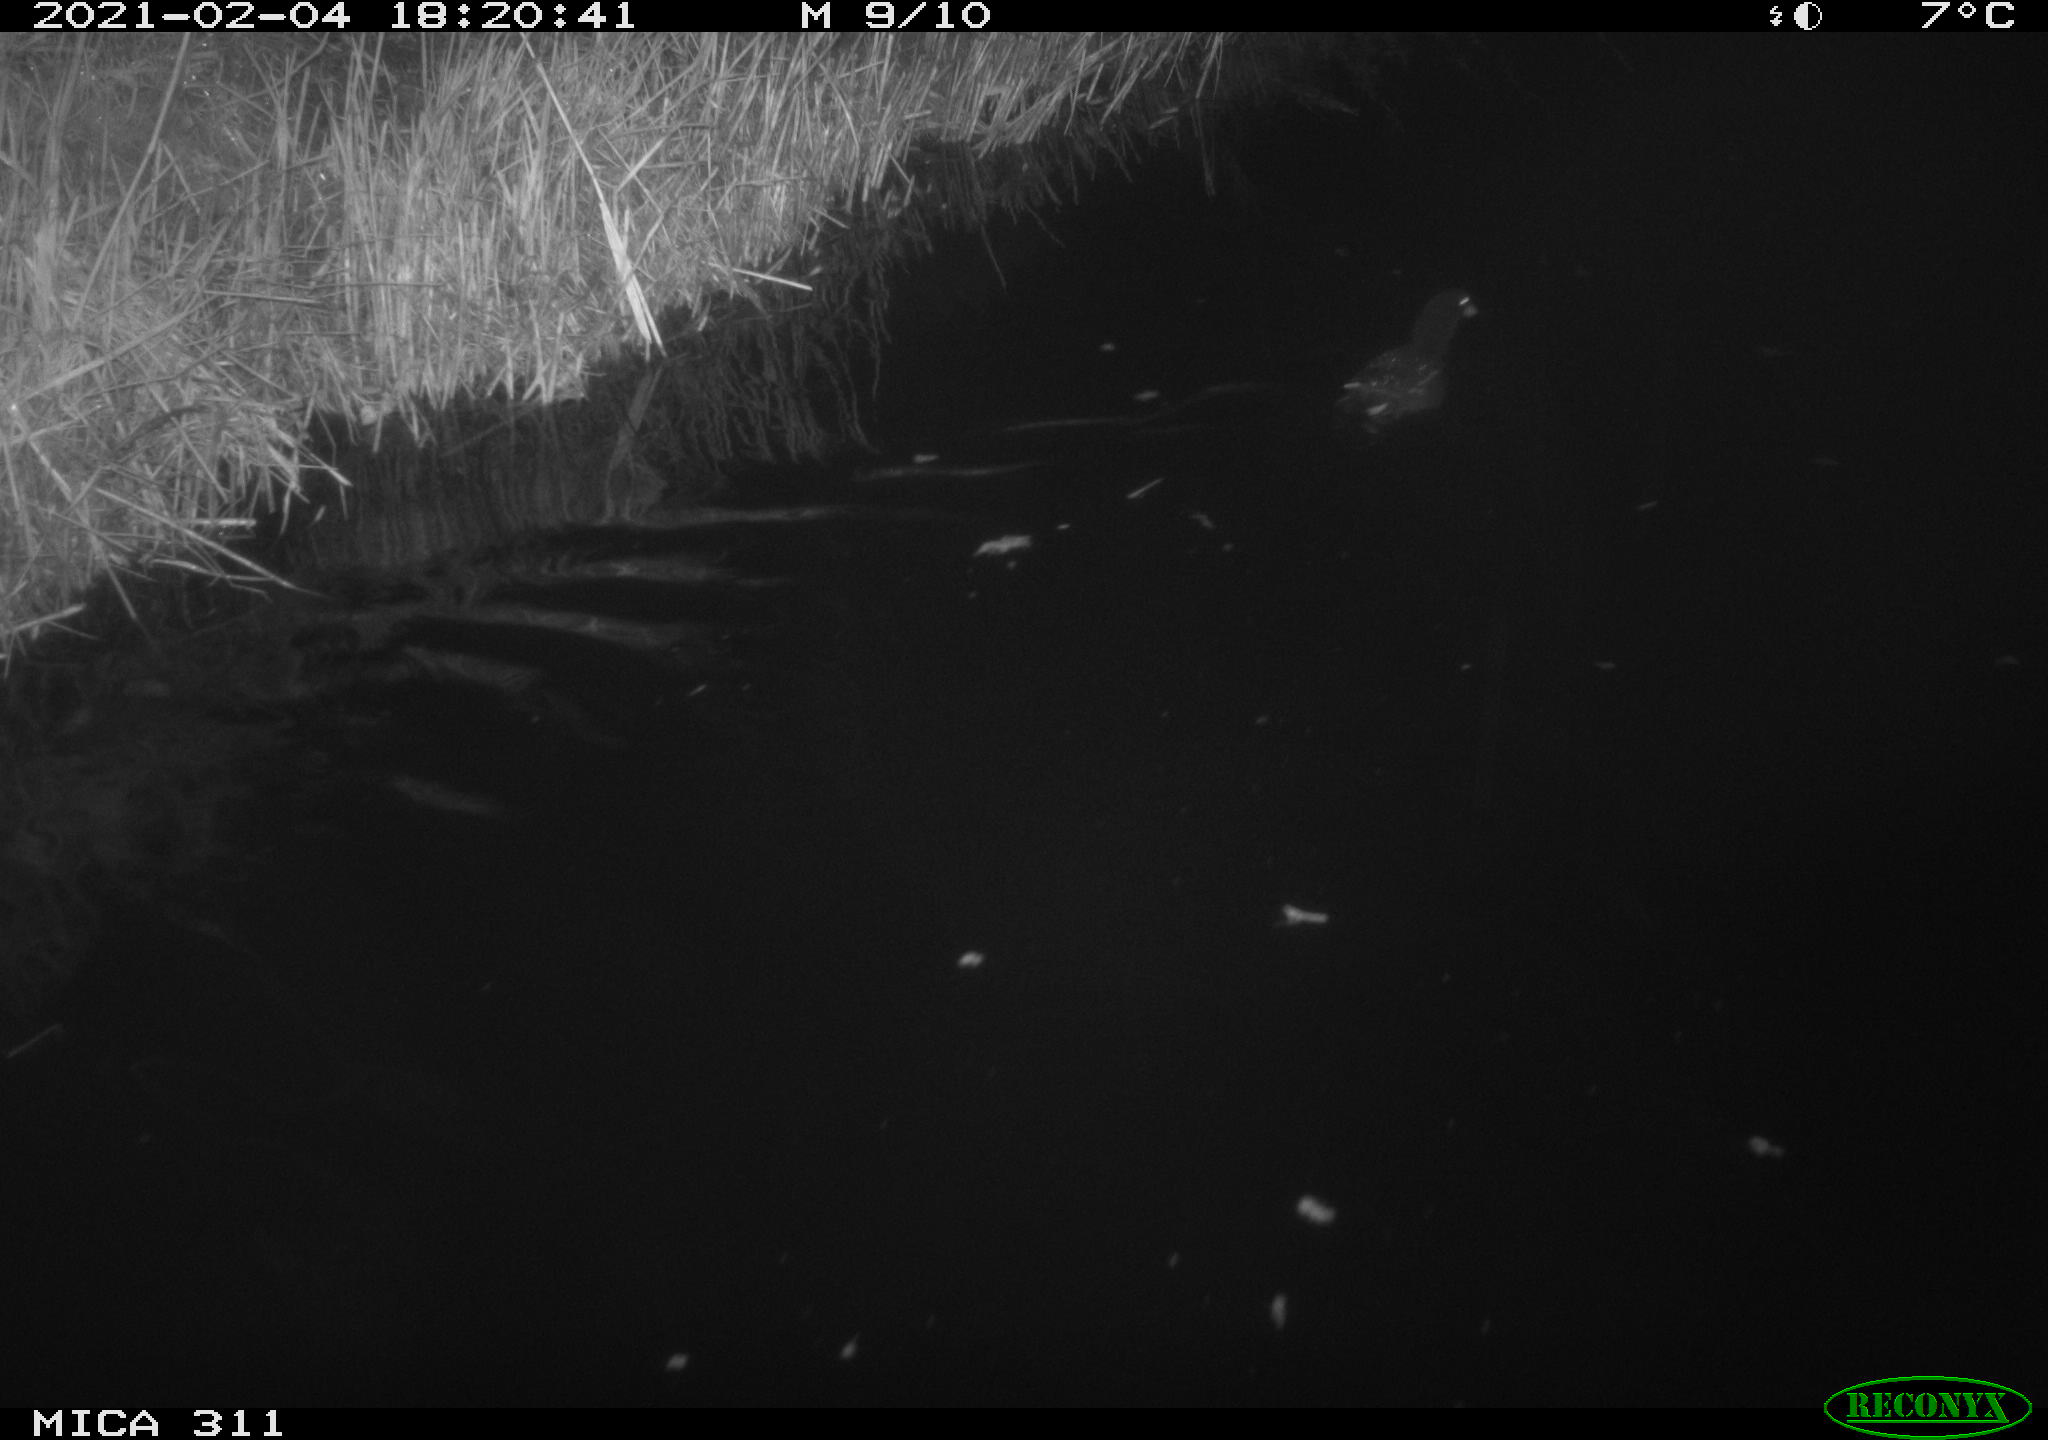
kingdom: Animalia
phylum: Chordata
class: Aves
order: Gruiformes
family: Rallidae
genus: Gallinula
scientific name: Gallinula chloropus
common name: Common moorhen
